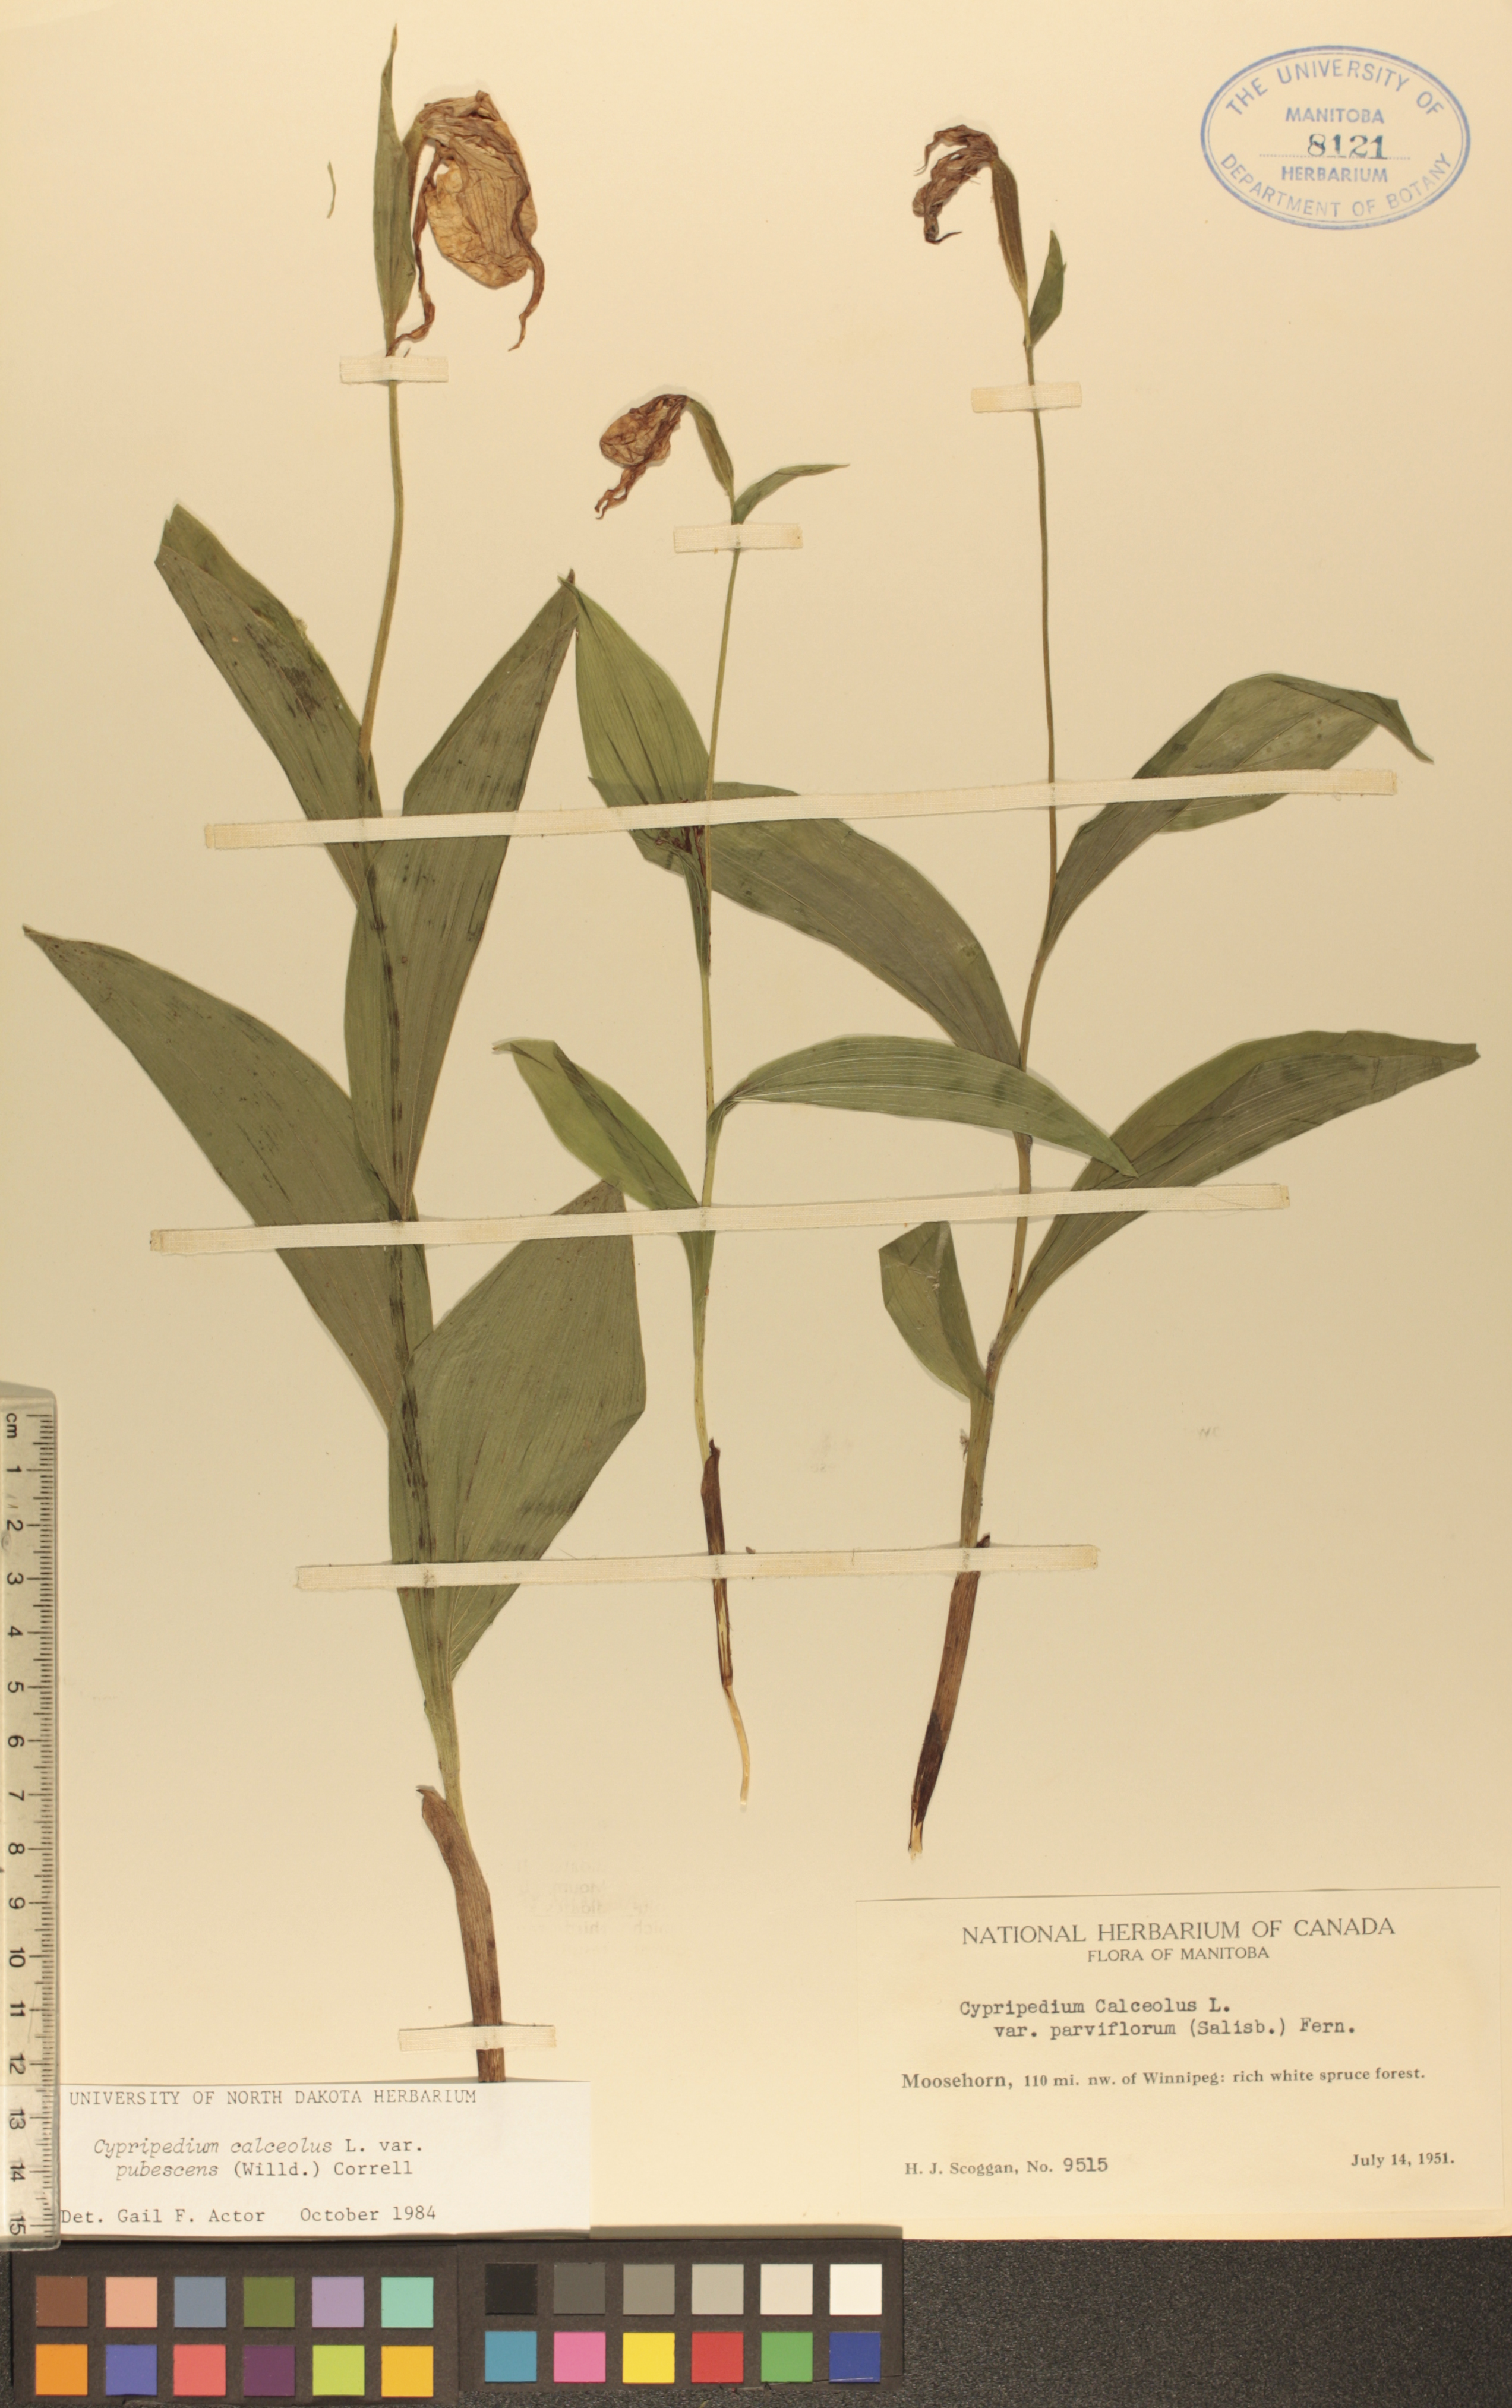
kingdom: Plantae
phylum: Tracheophyta
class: Liliopsida
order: Asparagales
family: Orchidaceae
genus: Cypripedium
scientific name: Cypripedium parviflorum
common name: American yellow lady's-slipper
